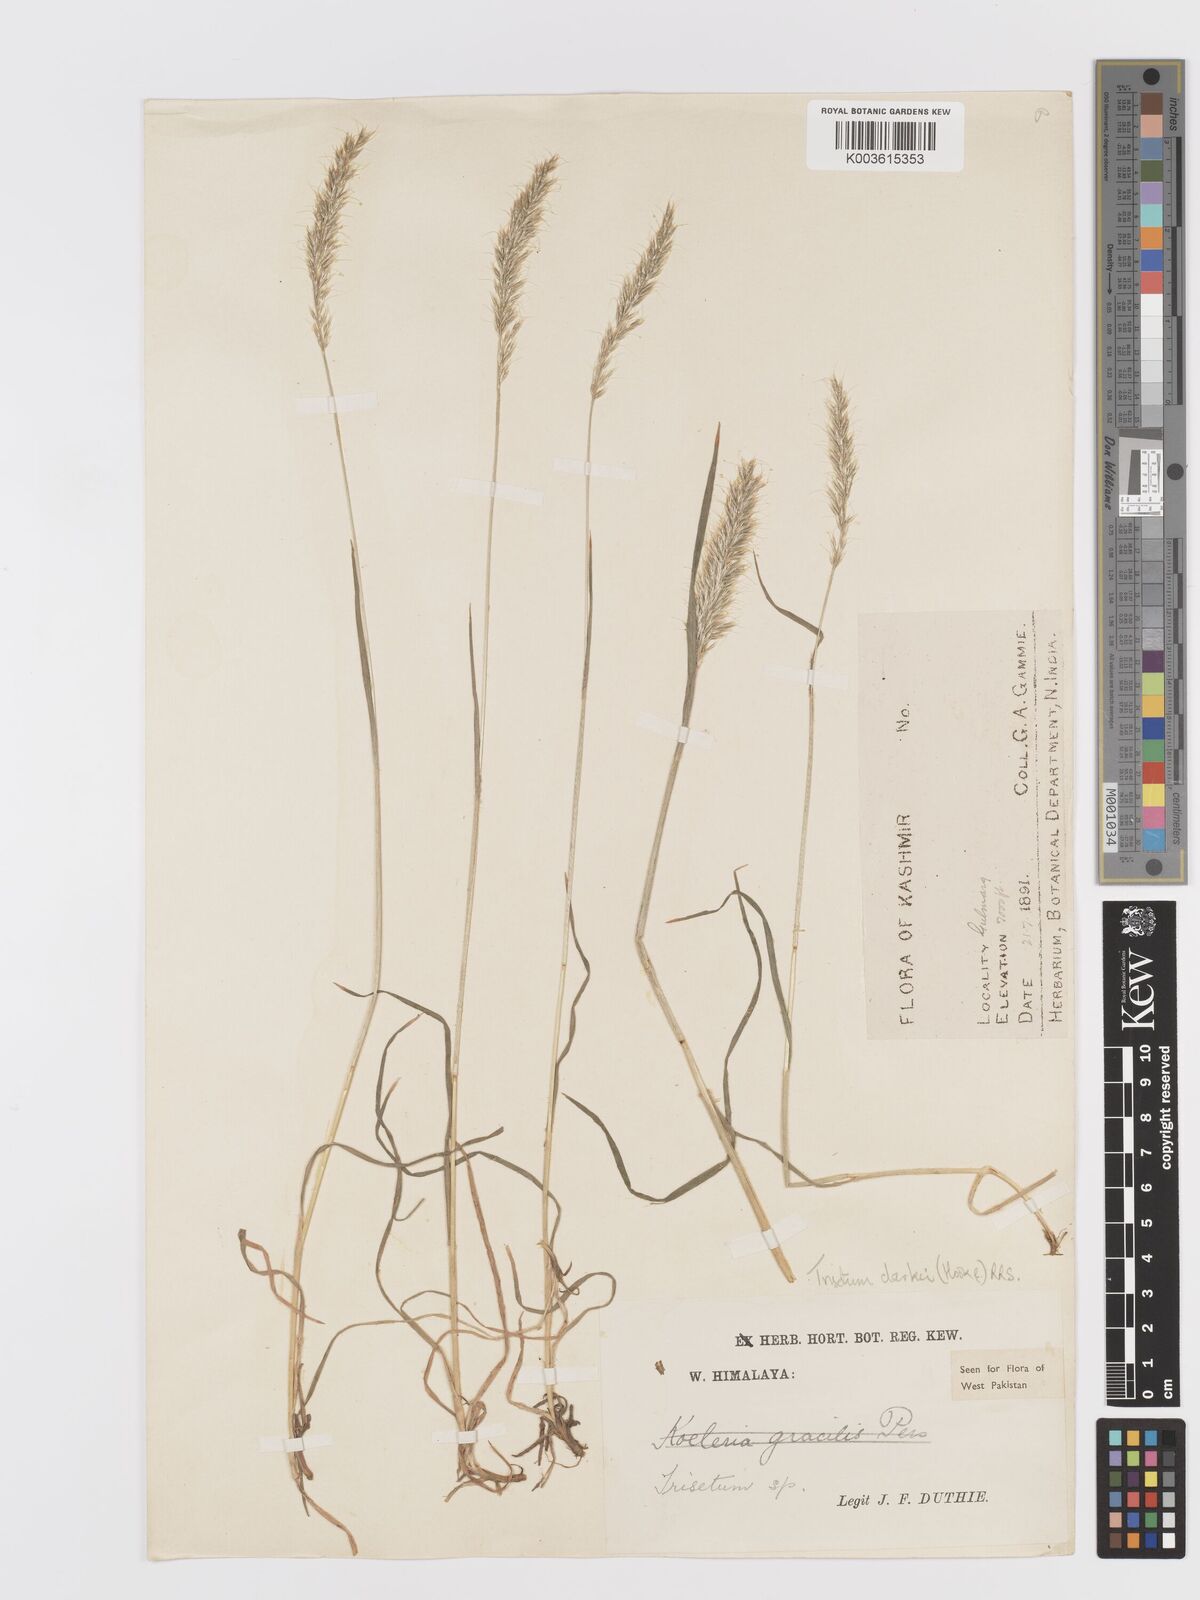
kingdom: Plantae
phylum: Tracheophyta
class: Liliopsida
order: Poales
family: Poaceae
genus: Trisetum
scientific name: Trisetum clarkei
